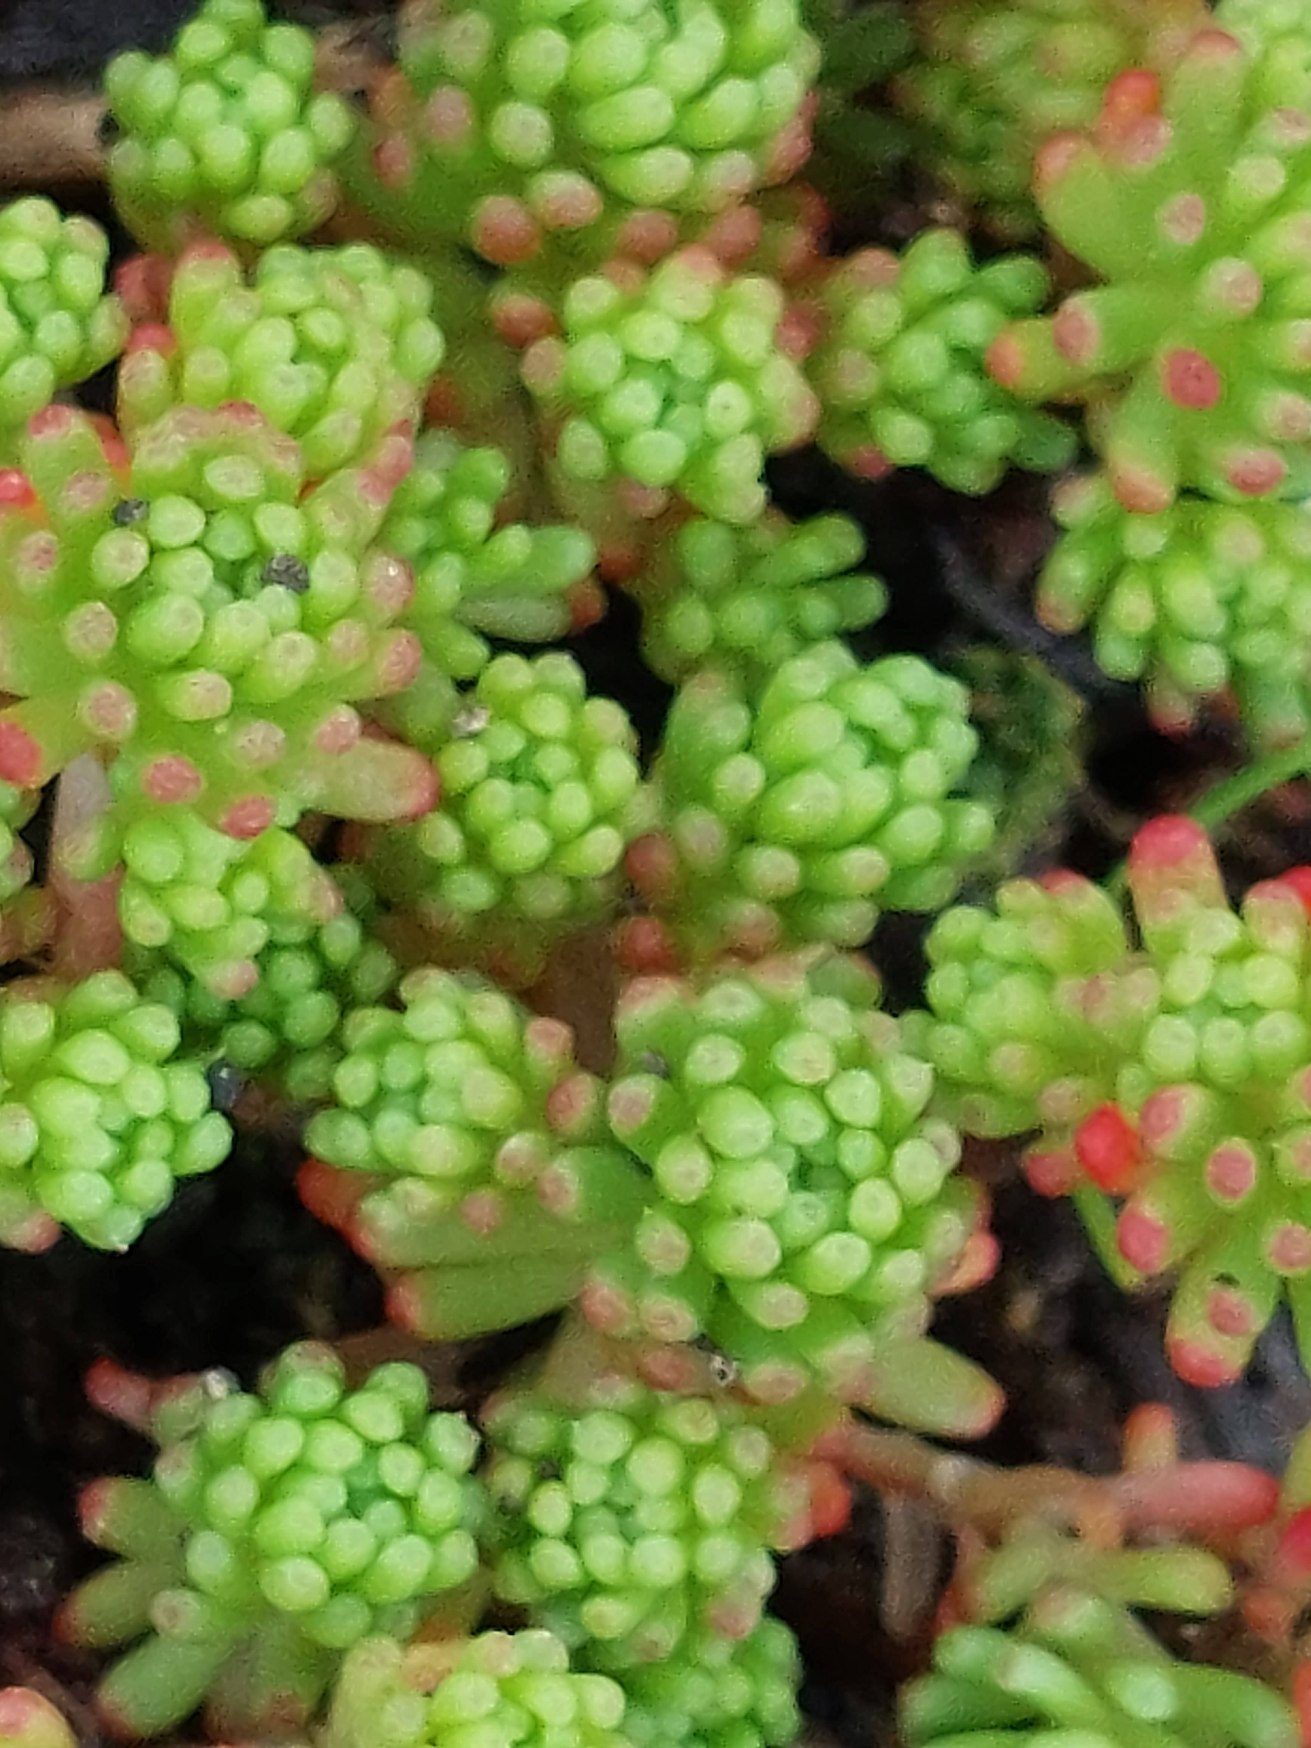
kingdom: Plantae
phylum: Tracheophyta
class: Magnoliopsida
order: Saxifragales
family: Crassulaceae
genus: Sedum
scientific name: Sedum lydium
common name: Mos-stenurt
